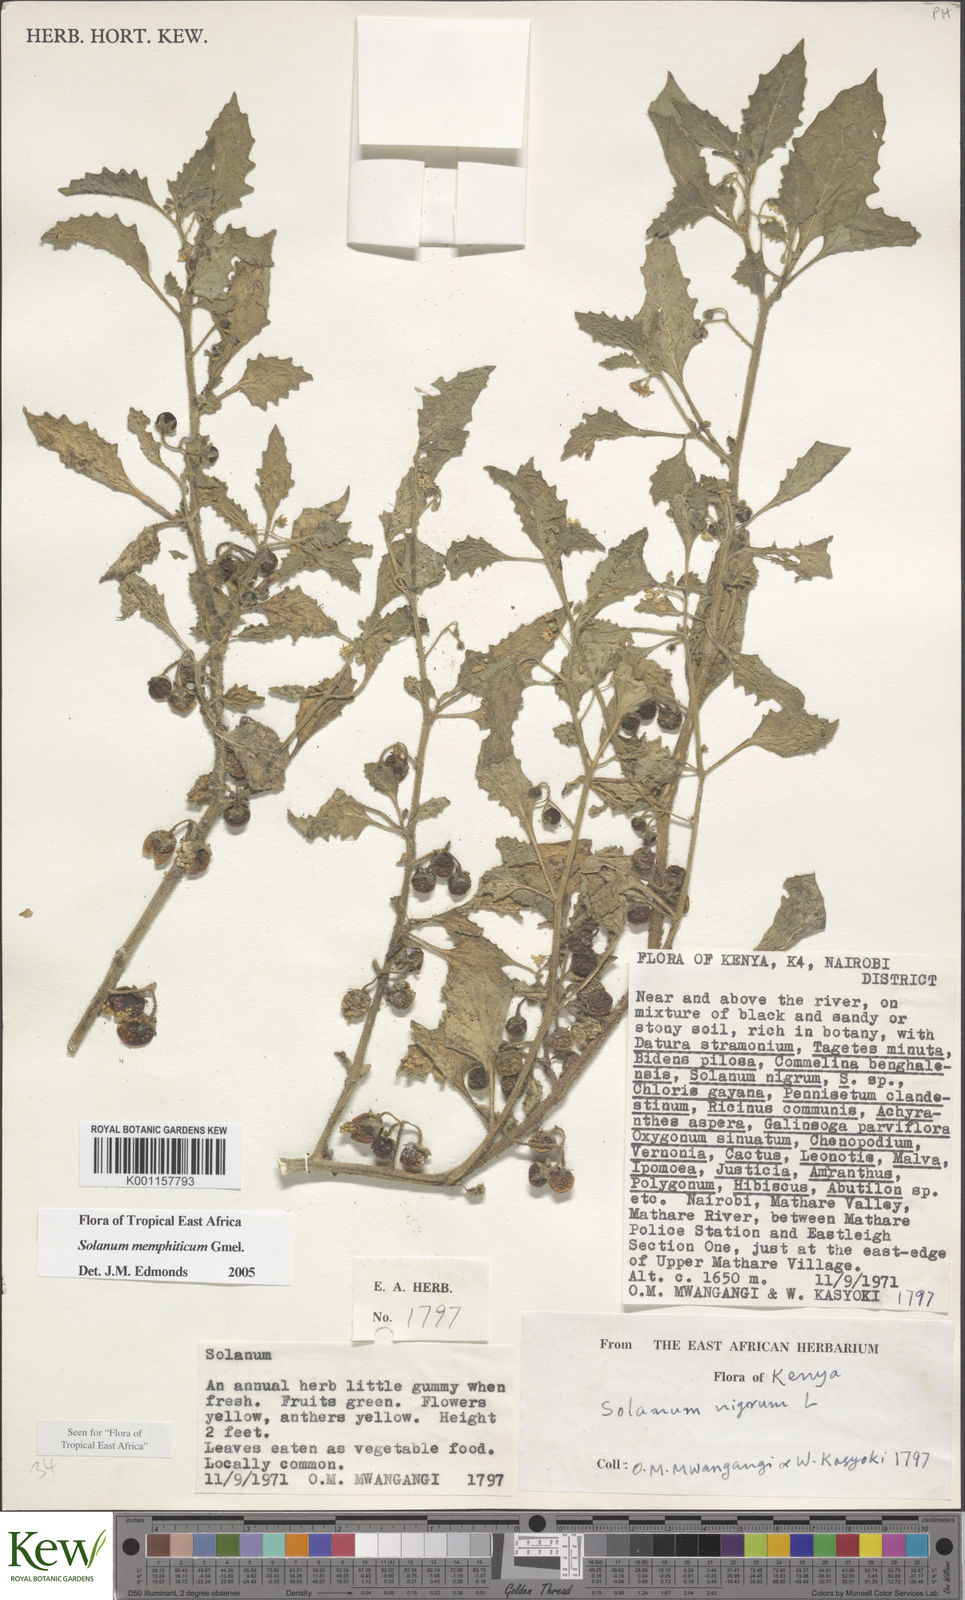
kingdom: Plantae
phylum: Tracheophyta
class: Magnoliopsida
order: Solanales
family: Solanaceae
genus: Solanum
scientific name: Solanum memphiticum
